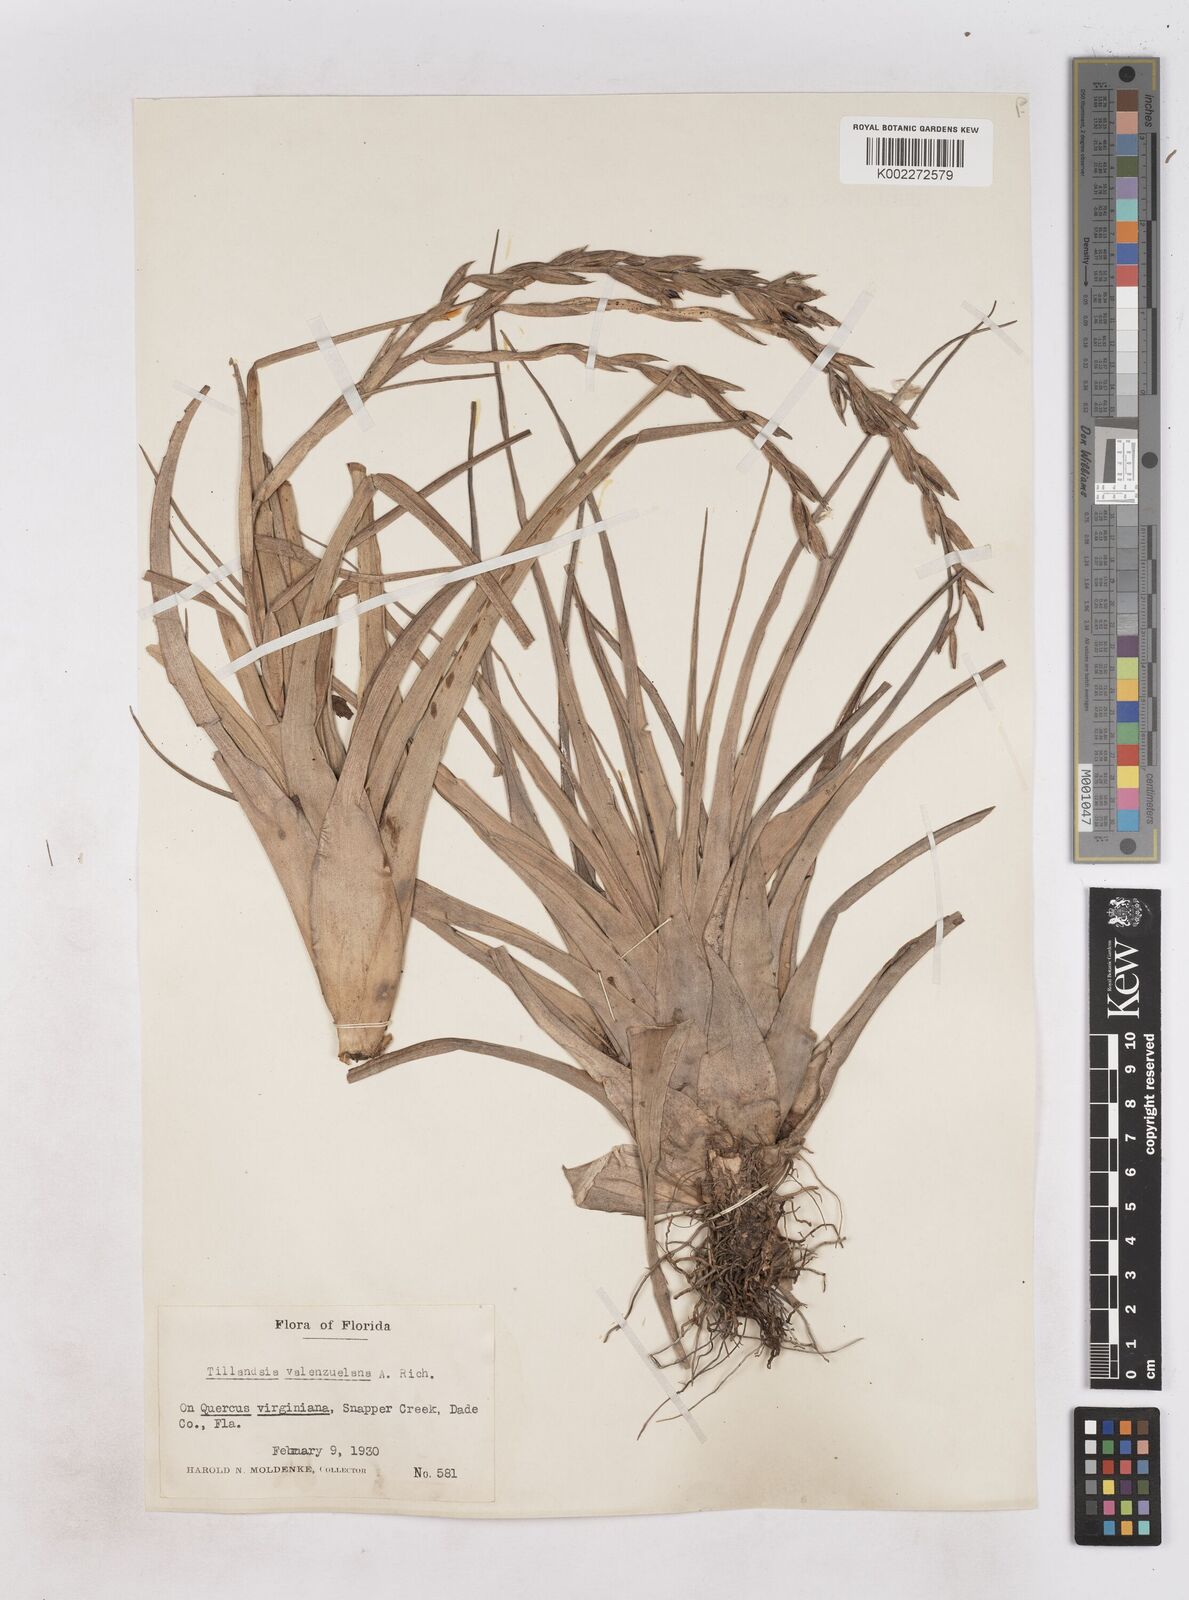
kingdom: Plantae
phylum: Tracheophyta
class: Liliopsida
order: Poales
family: Bromeliaceae
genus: Tillandsia
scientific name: Tillandsia variabilis
